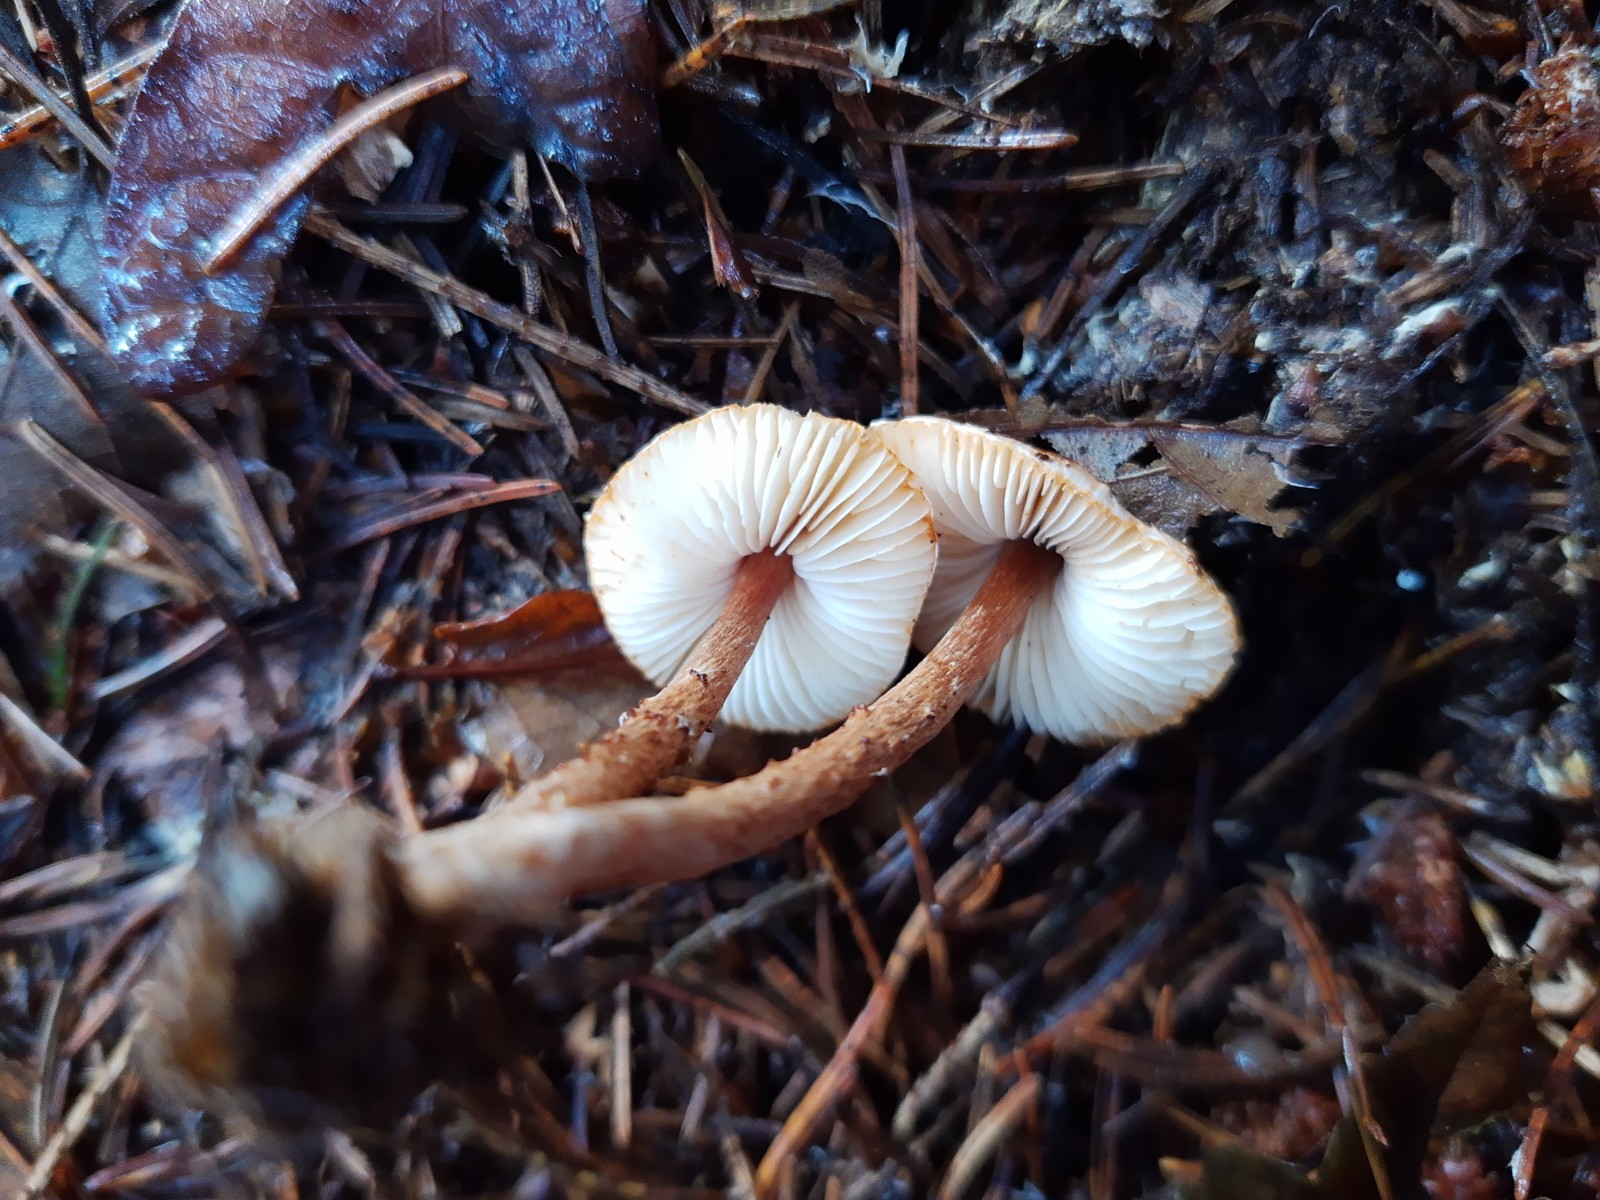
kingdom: Fungi
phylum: Basidiomycota
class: Agaricomycetes
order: Agaricales
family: Agaricaceae
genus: Lepiota
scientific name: Lepiota castanea
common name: kastaniebrun parasolhat
